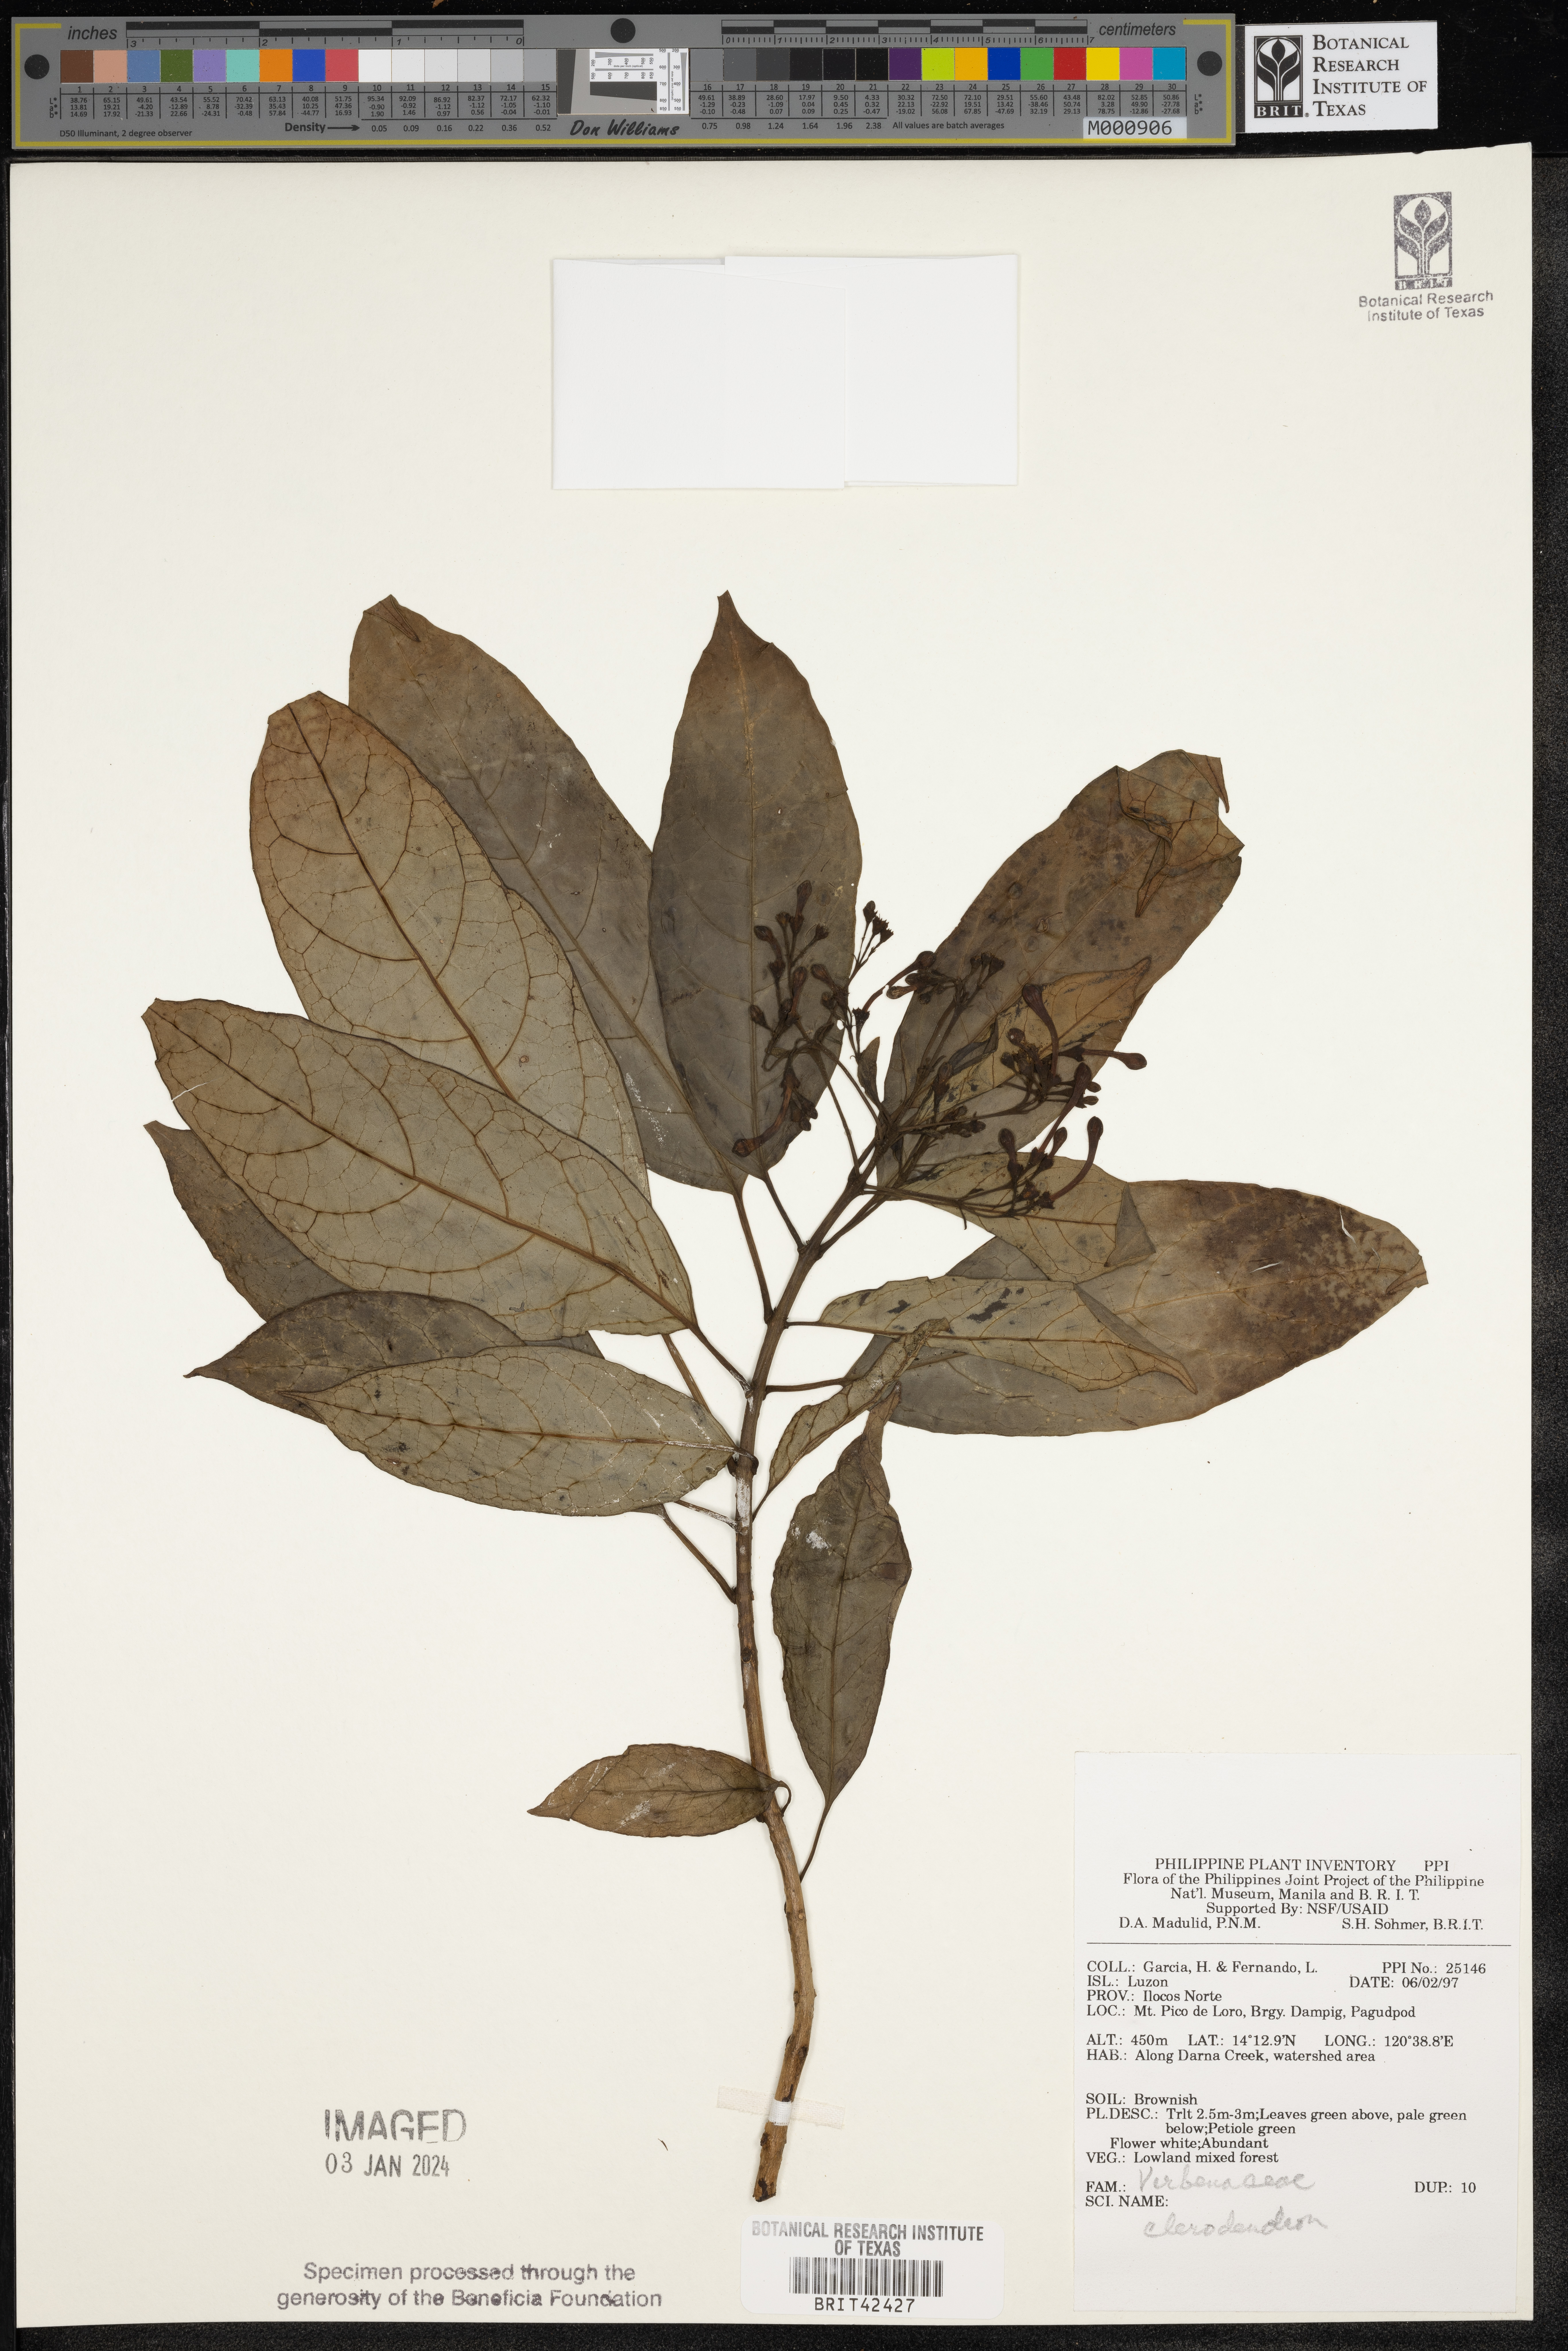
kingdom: Plantae
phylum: Tracheophyta
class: Magnoliopsida
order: Lamiales
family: Lamiaceae
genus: Clerodendrum
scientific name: Clerodendrum
